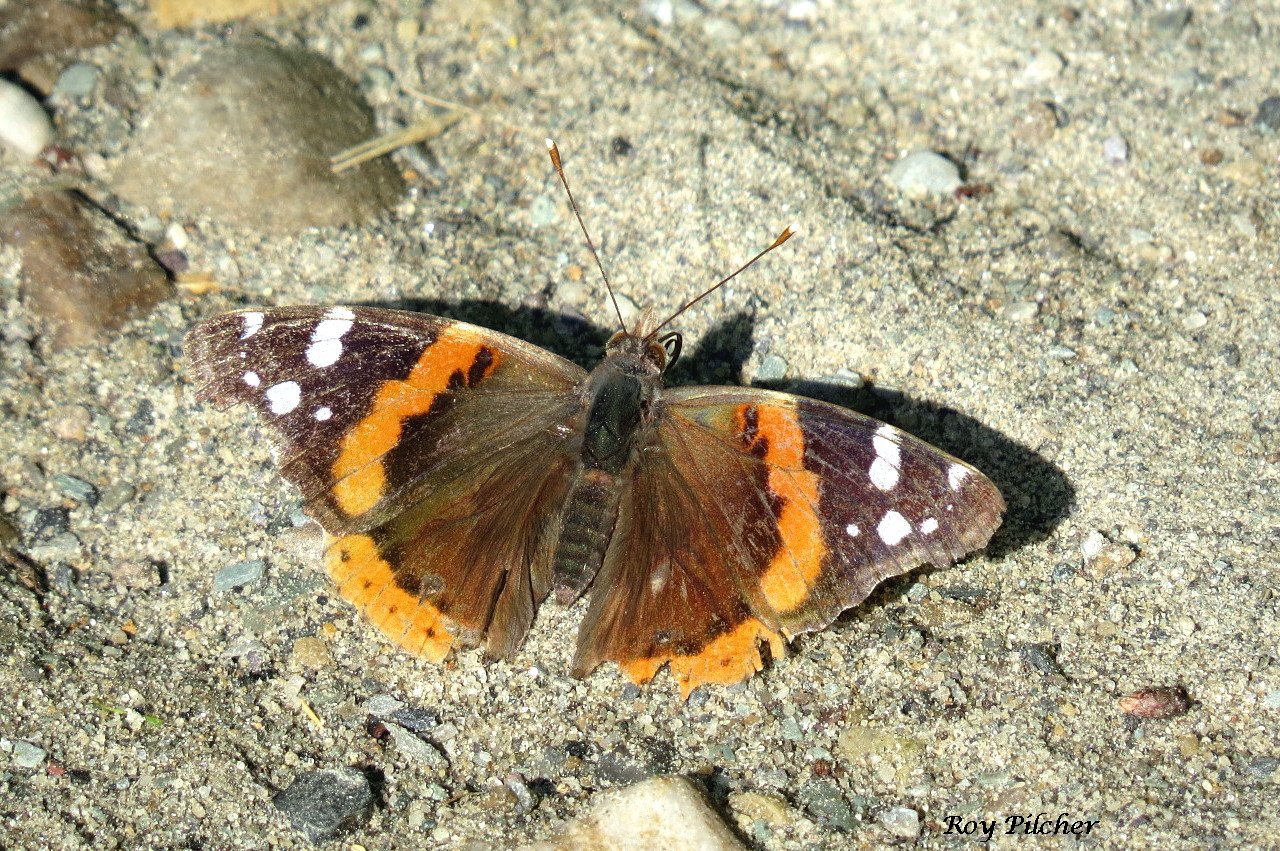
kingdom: Animalia
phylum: Arthropoda
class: Insecta
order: Lepidoptera
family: Nymphalidae
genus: Vanessa
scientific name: Vanessa atalanta
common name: Red Admiral
